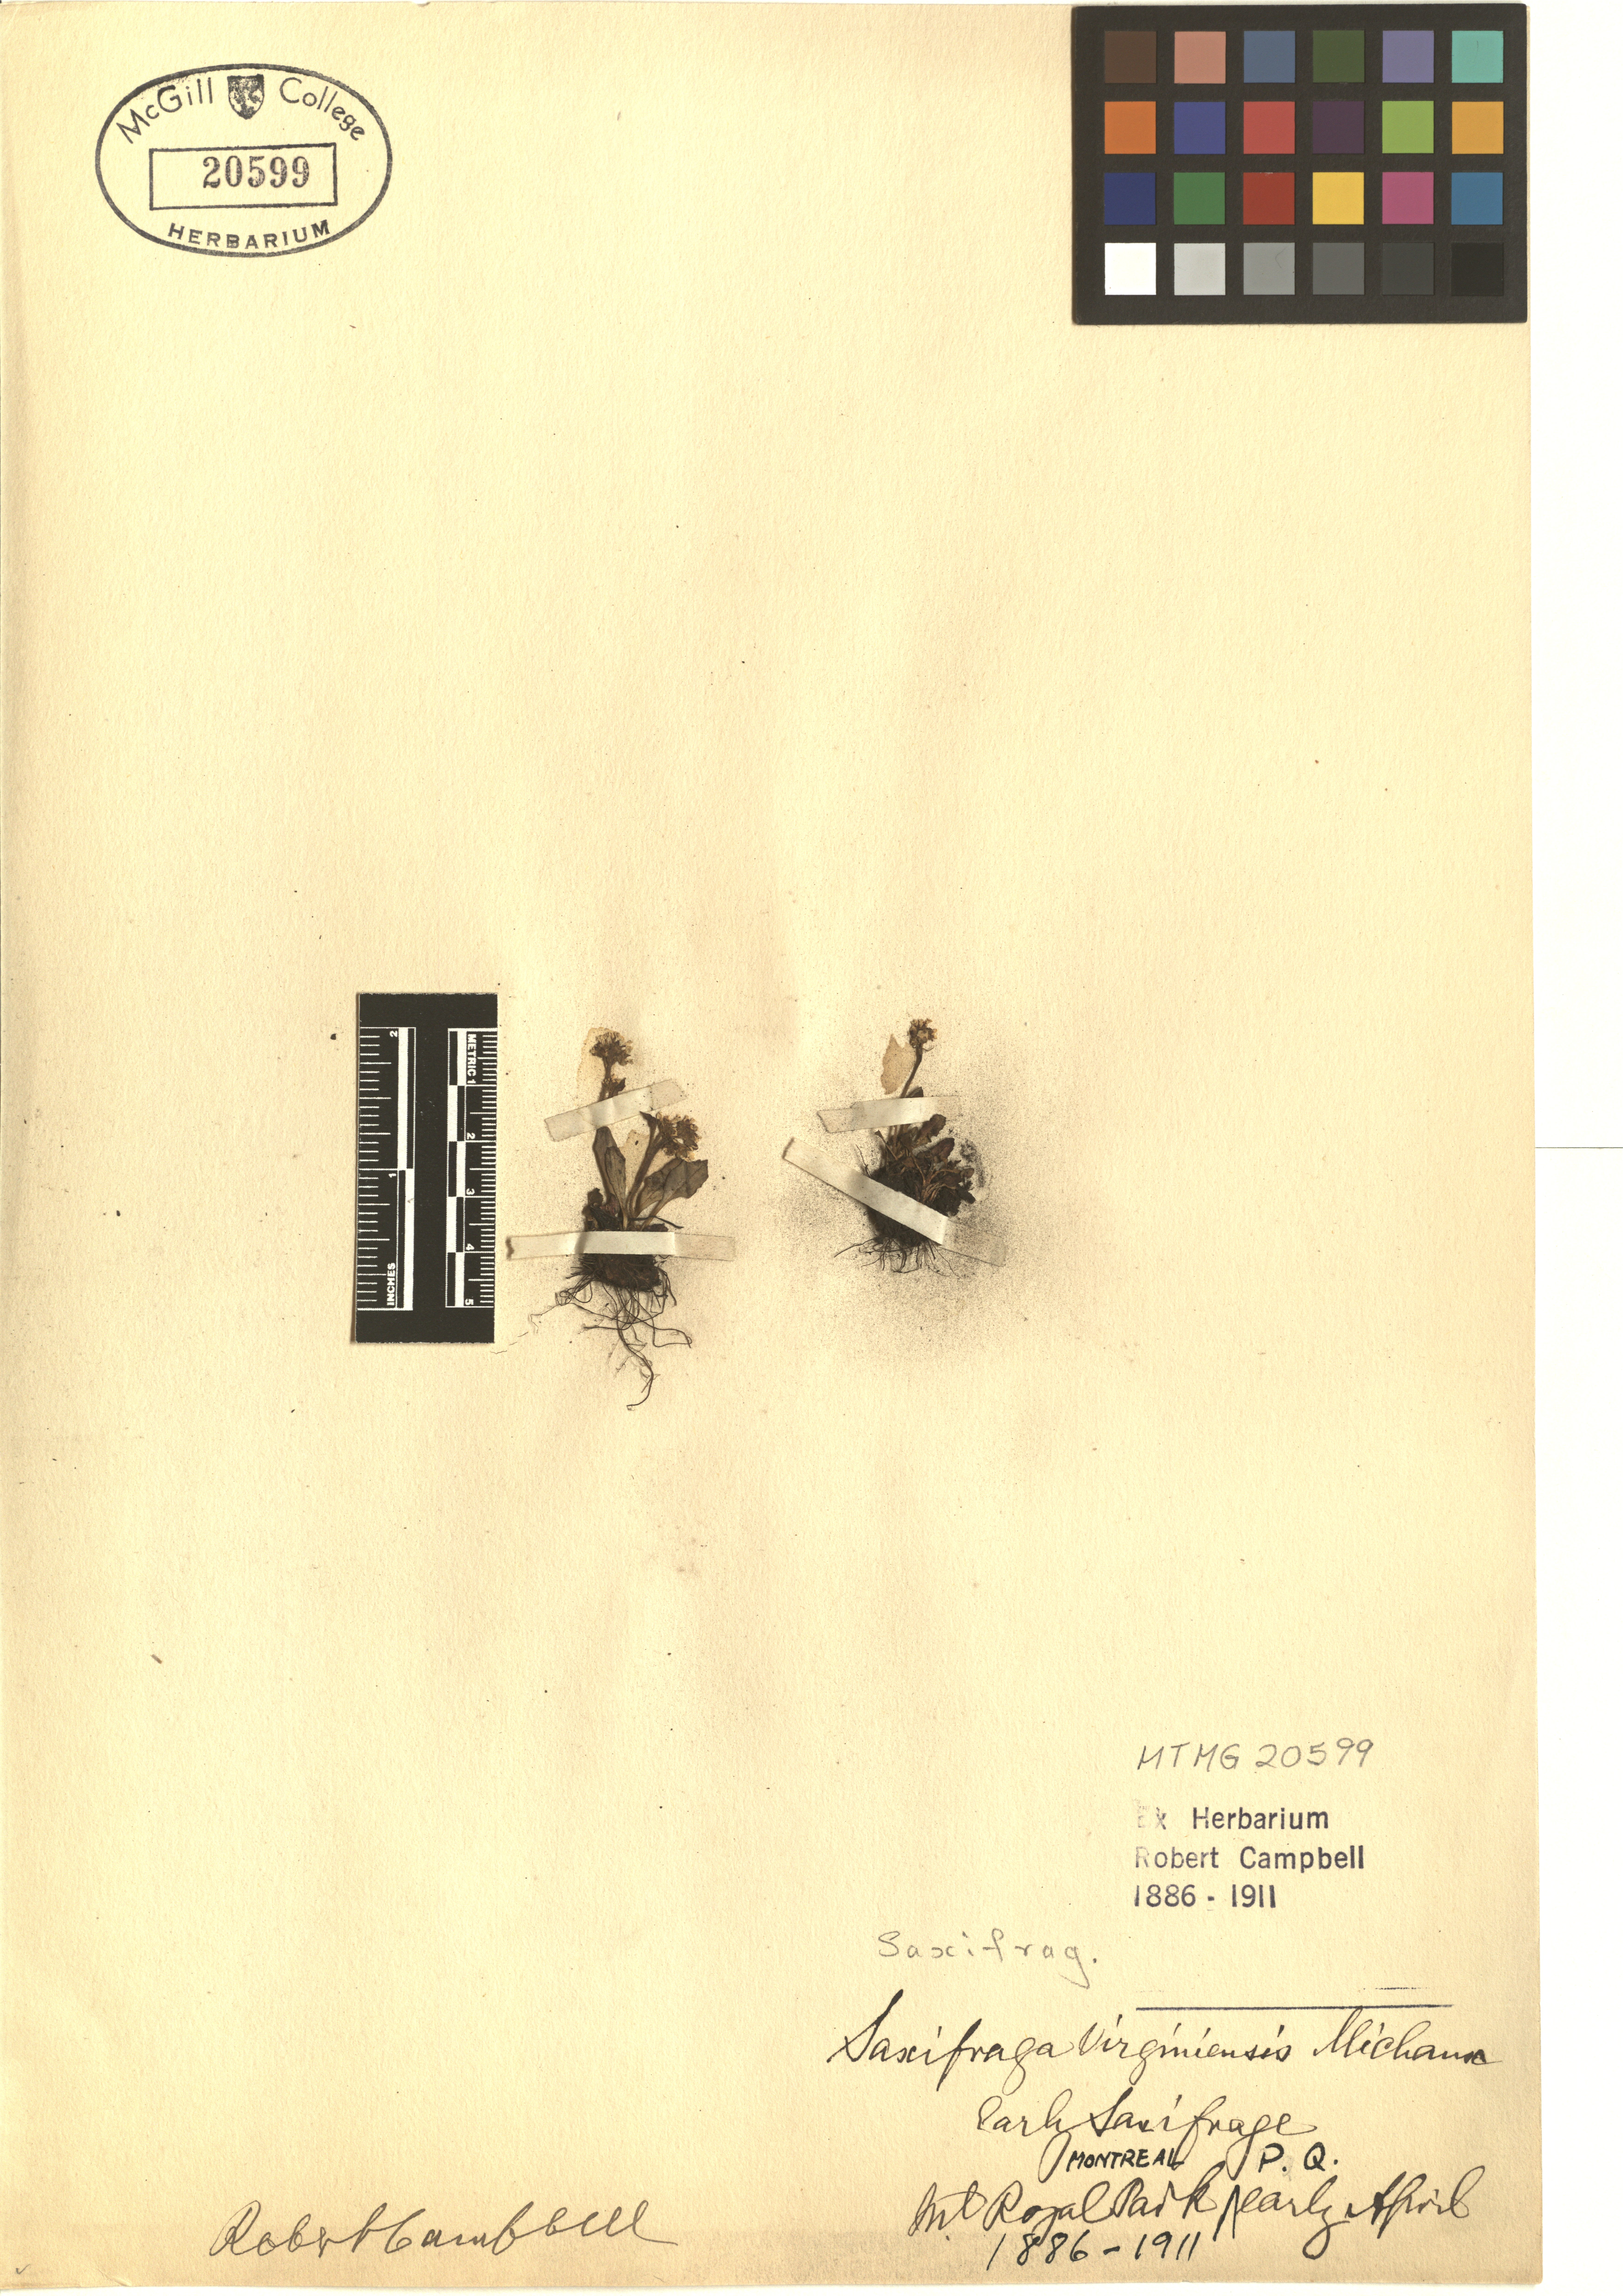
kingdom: Plantae
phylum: Tracheophyta
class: Magnoliopsida
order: Saxifragales
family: Saxifragaceae
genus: Micranthes
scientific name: Micranthes virginiensis
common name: Early saxifrage
